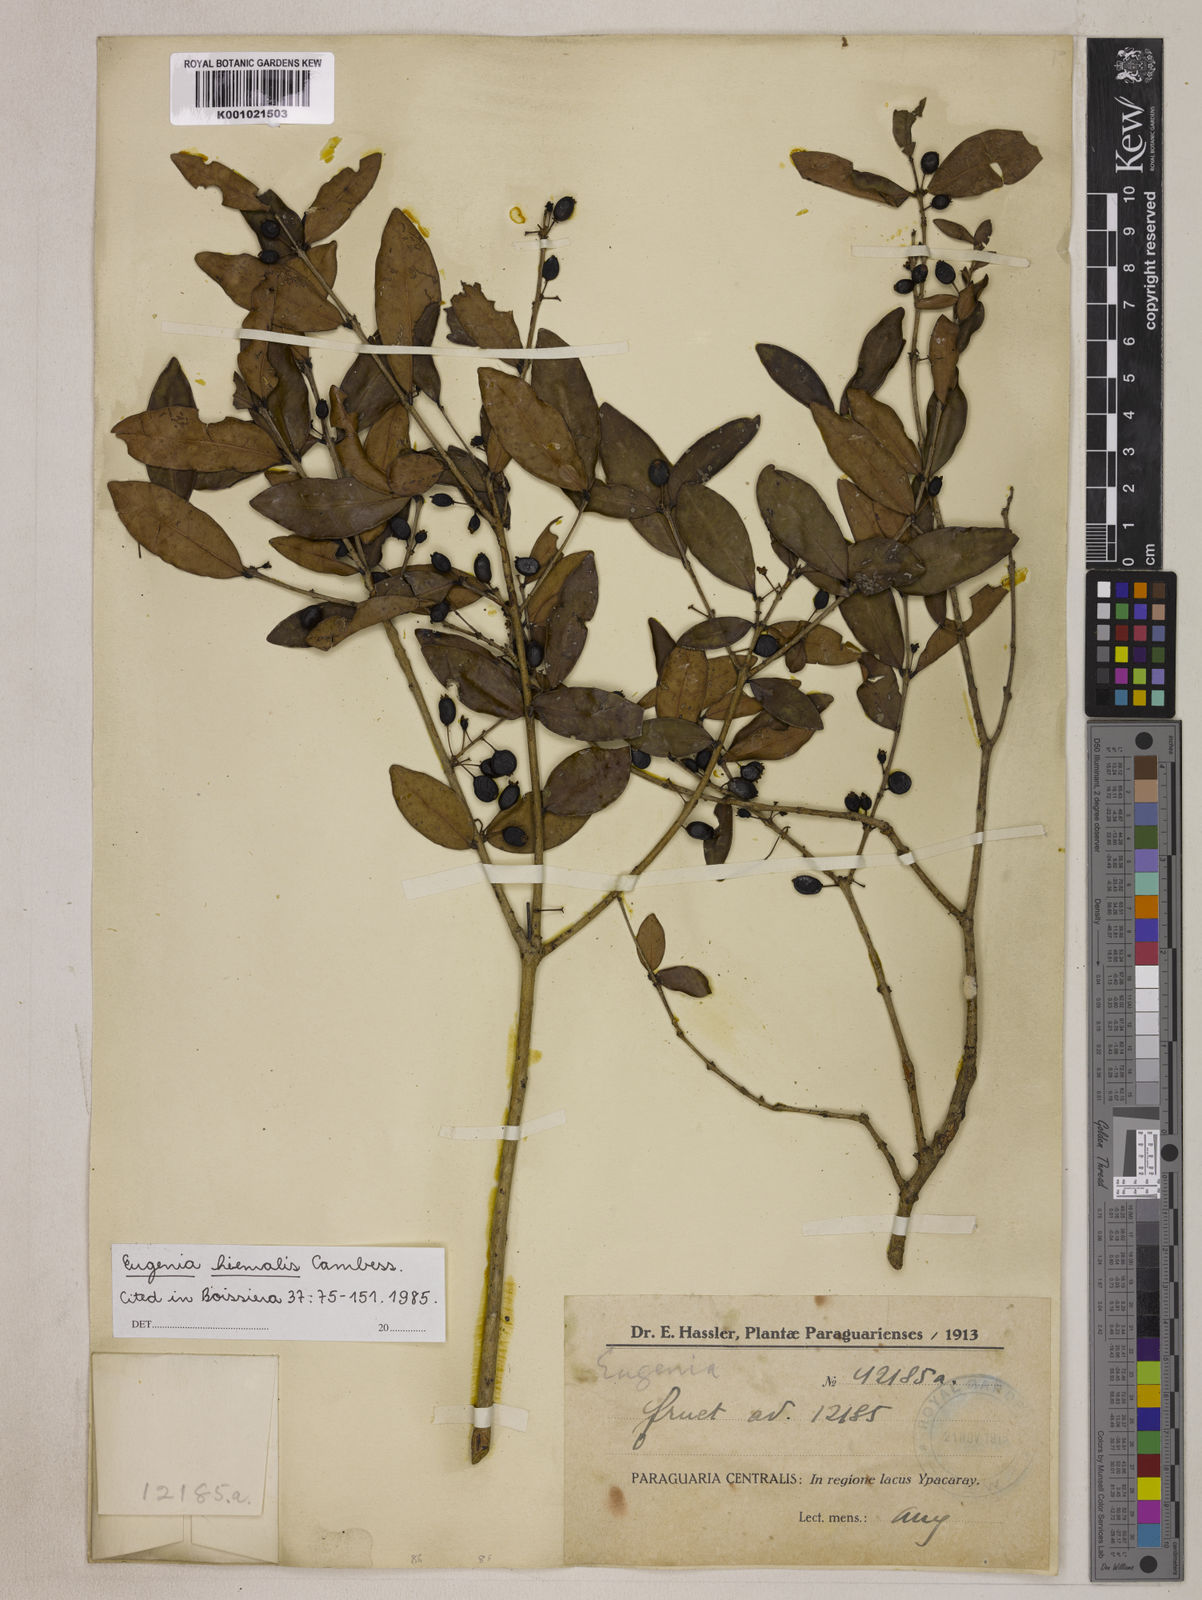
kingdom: Plantae
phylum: Tracheophyta
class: Magnoliopsida
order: Myrtales
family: Myrtaceae
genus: Eugenia
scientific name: Eugenia hiemalis
